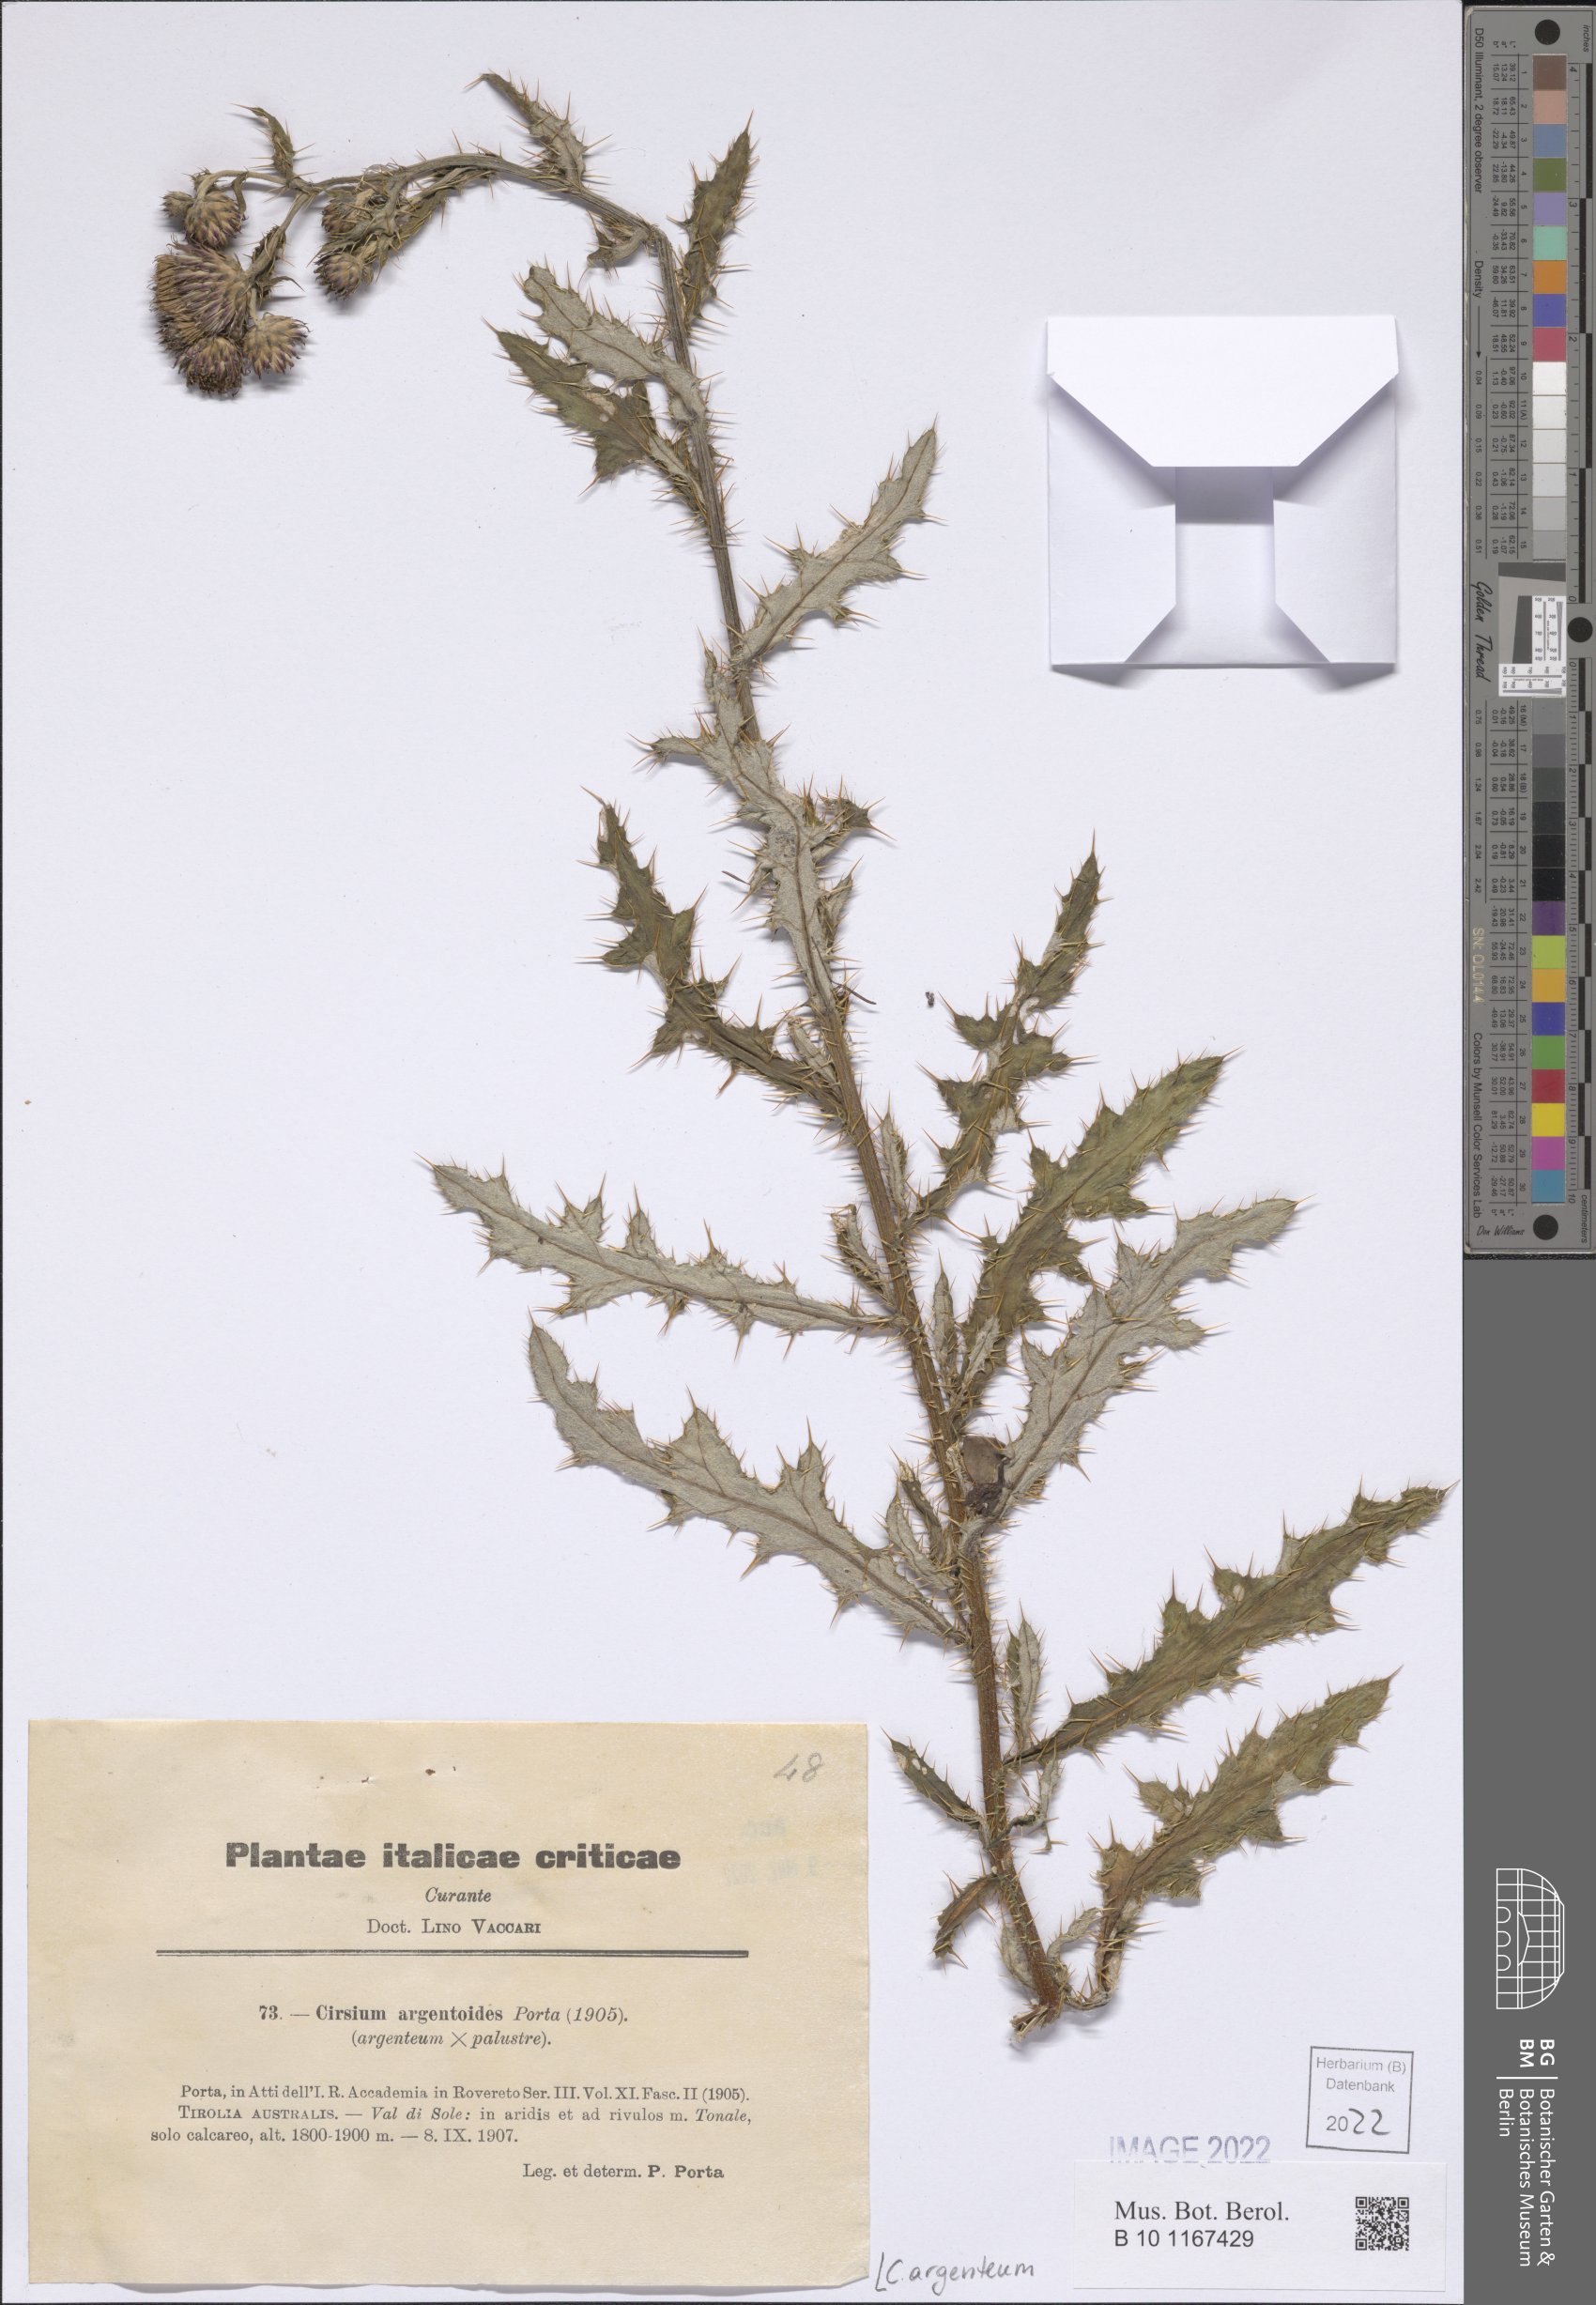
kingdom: Plantae
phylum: Tracheophyta
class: Magnoliopsida
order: Asterales
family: Asteraceae
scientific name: Asteraceae
